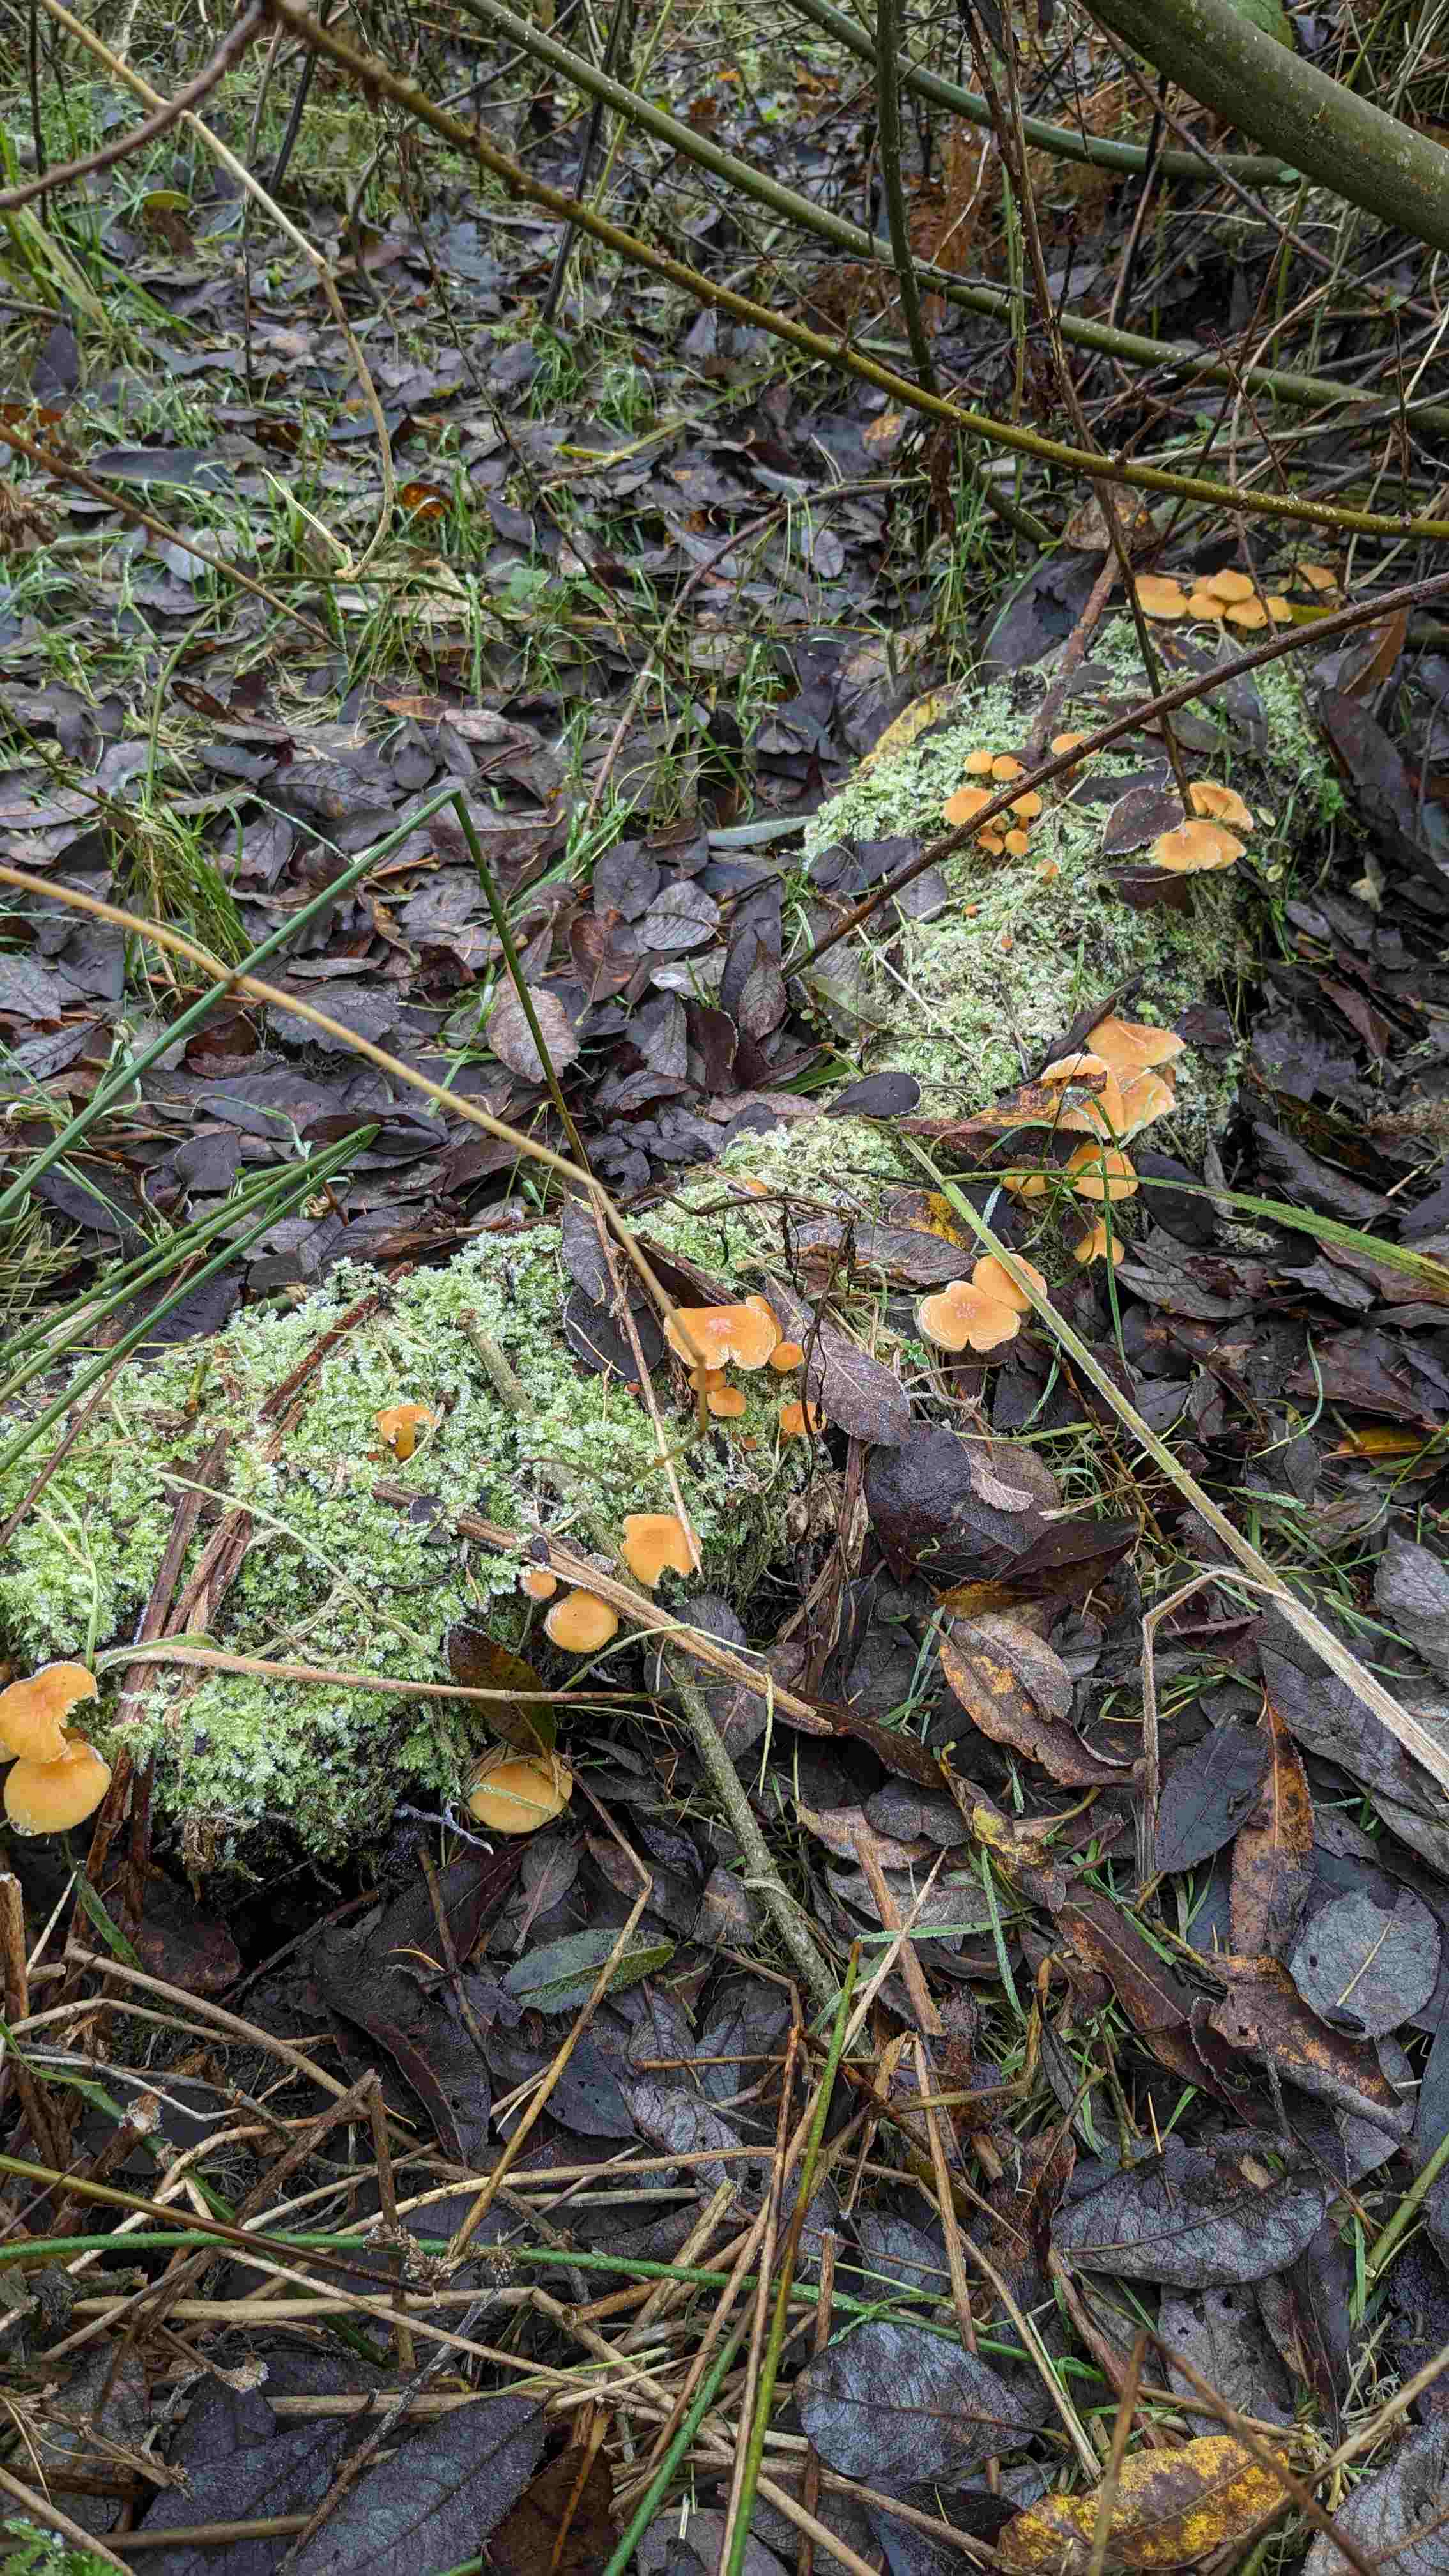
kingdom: Fungi
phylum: Basidiomycota
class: Agaricomycetes
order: Agaricales
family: Physalacriaceae
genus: Flammulina
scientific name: Flammulina
